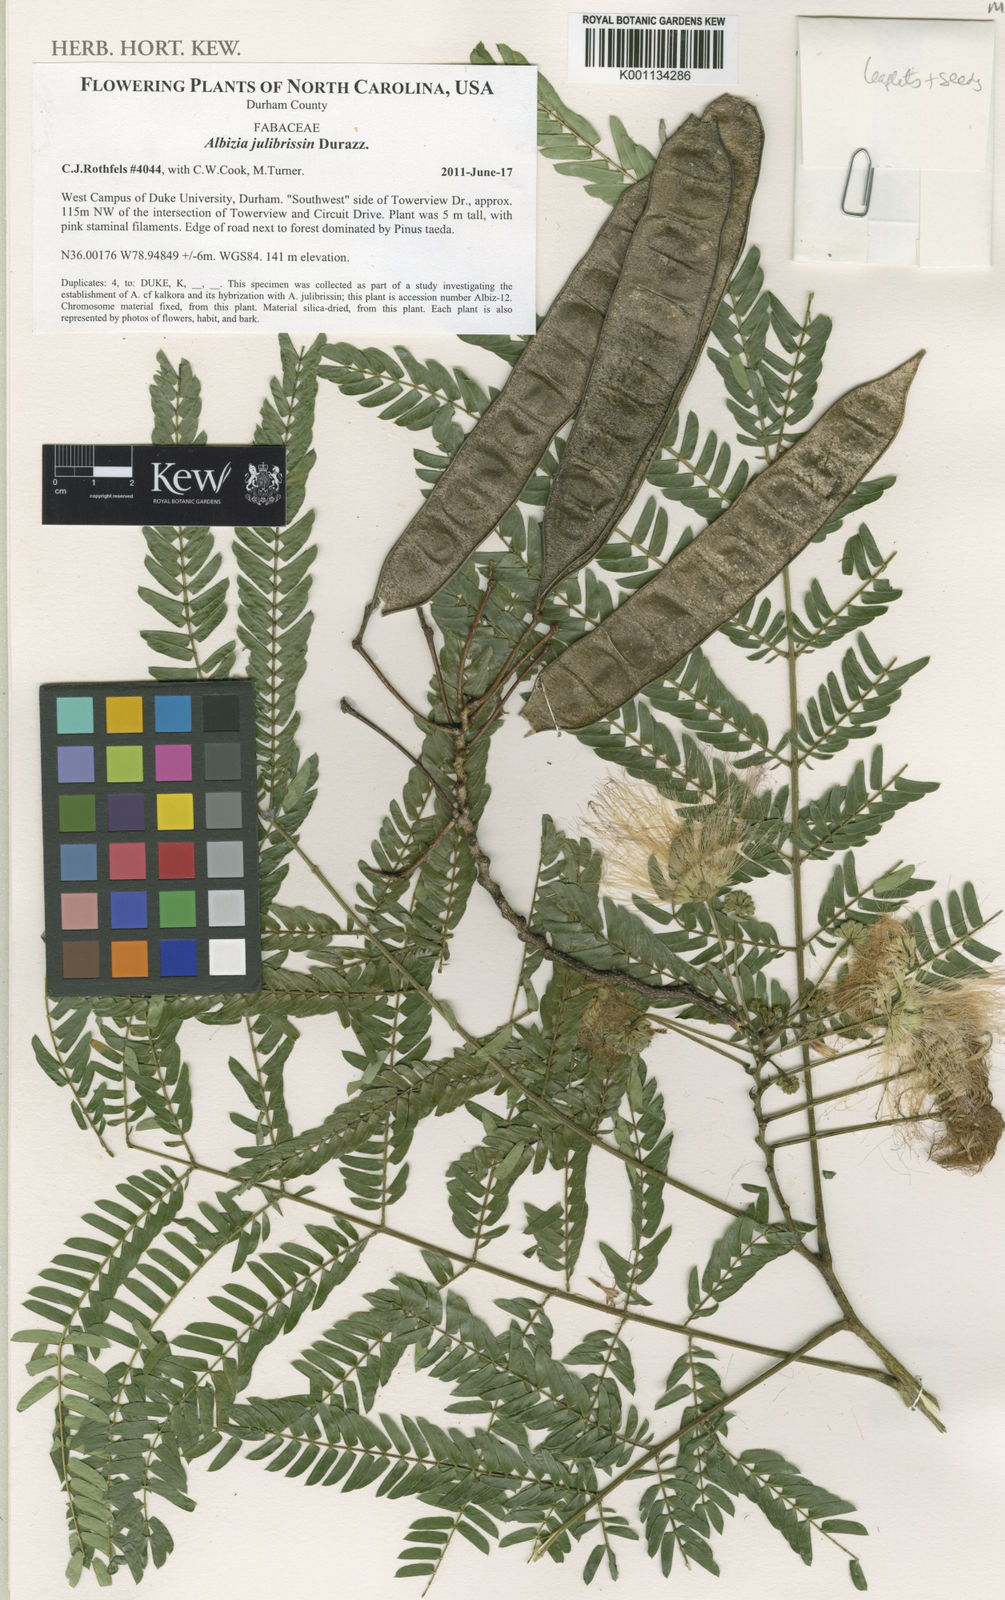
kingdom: Plantae
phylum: Tracheophyta
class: Magnoliopsida
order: Fabales
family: Fabaceae
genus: Albizia
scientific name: Albizia julibrissin
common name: Silktree
